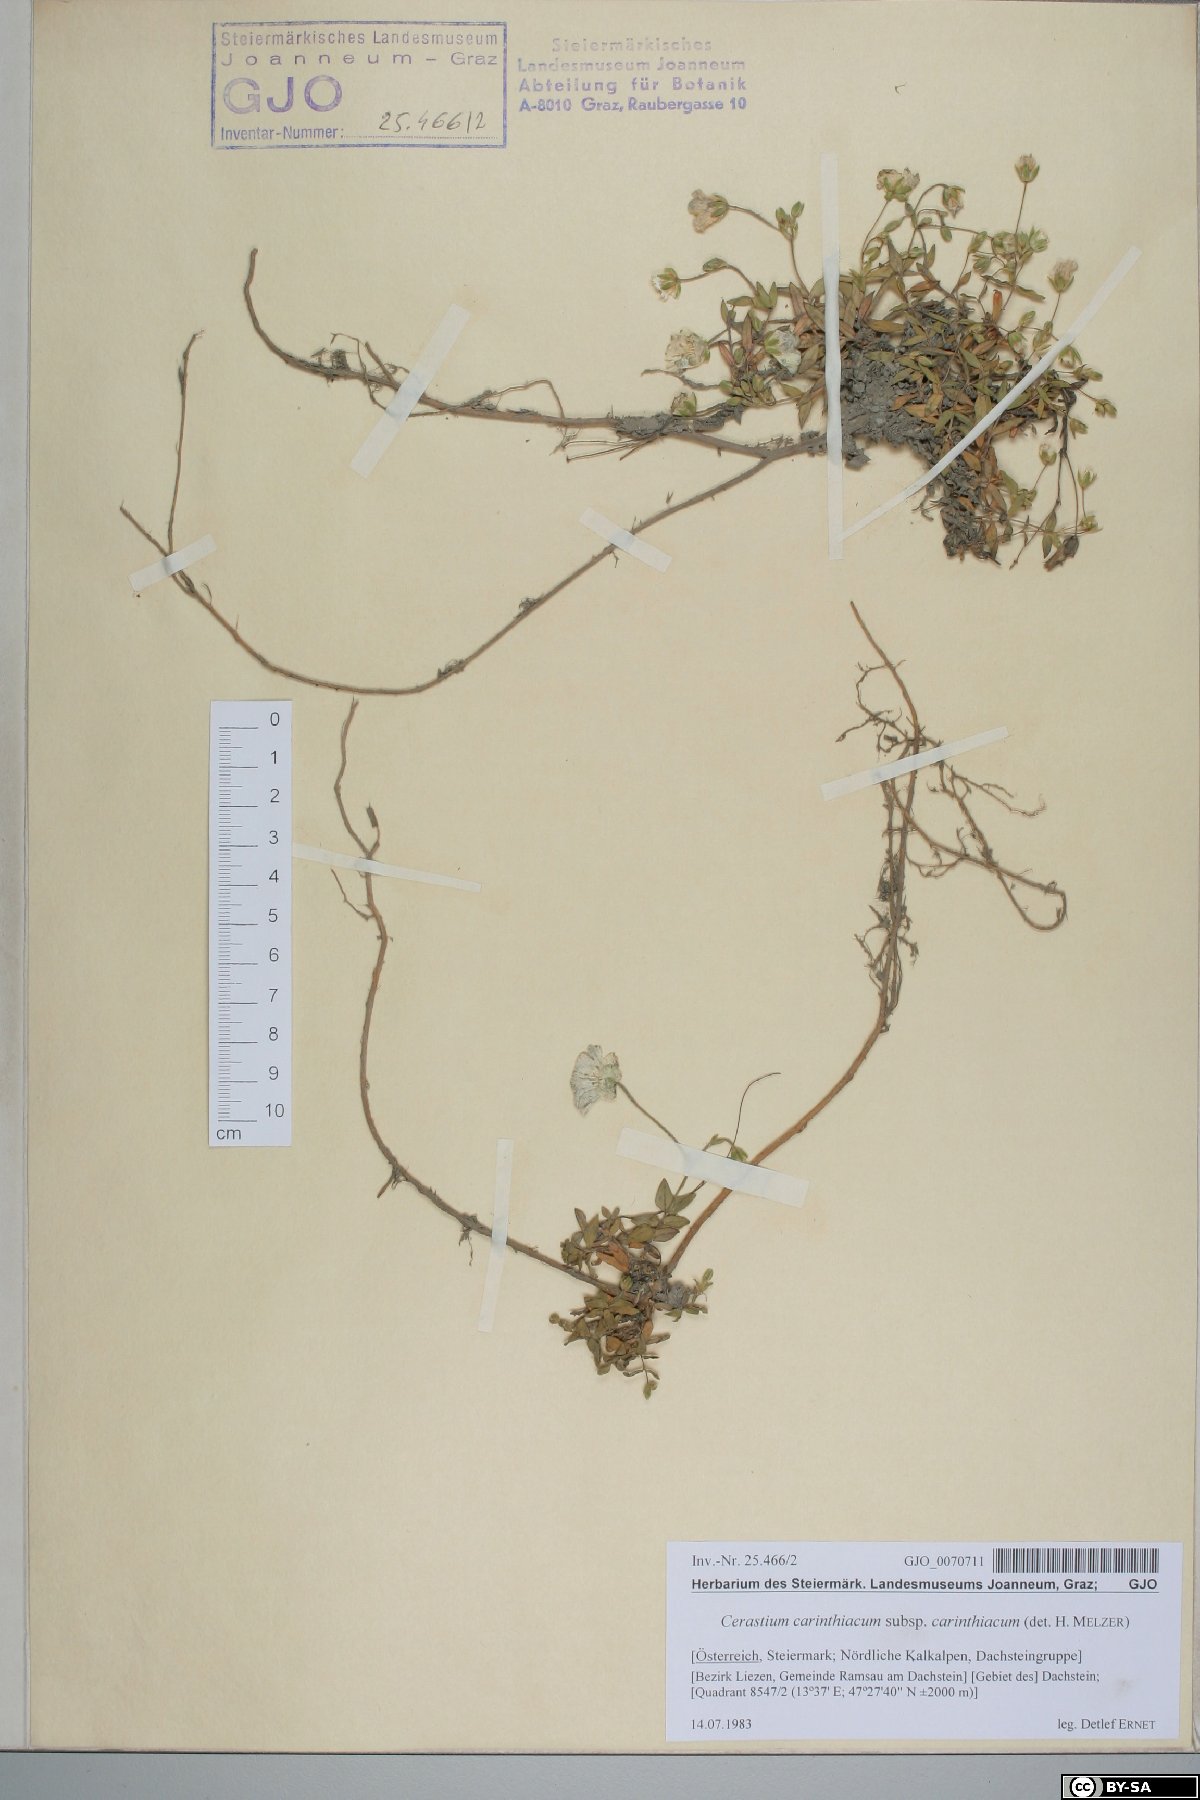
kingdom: Plantae
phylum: Tracheophyta
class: Magnoliopsida
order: Caryophyllales
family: Caryophyllaceae
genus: Cerastium
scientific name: Cerastium carinthiacum
